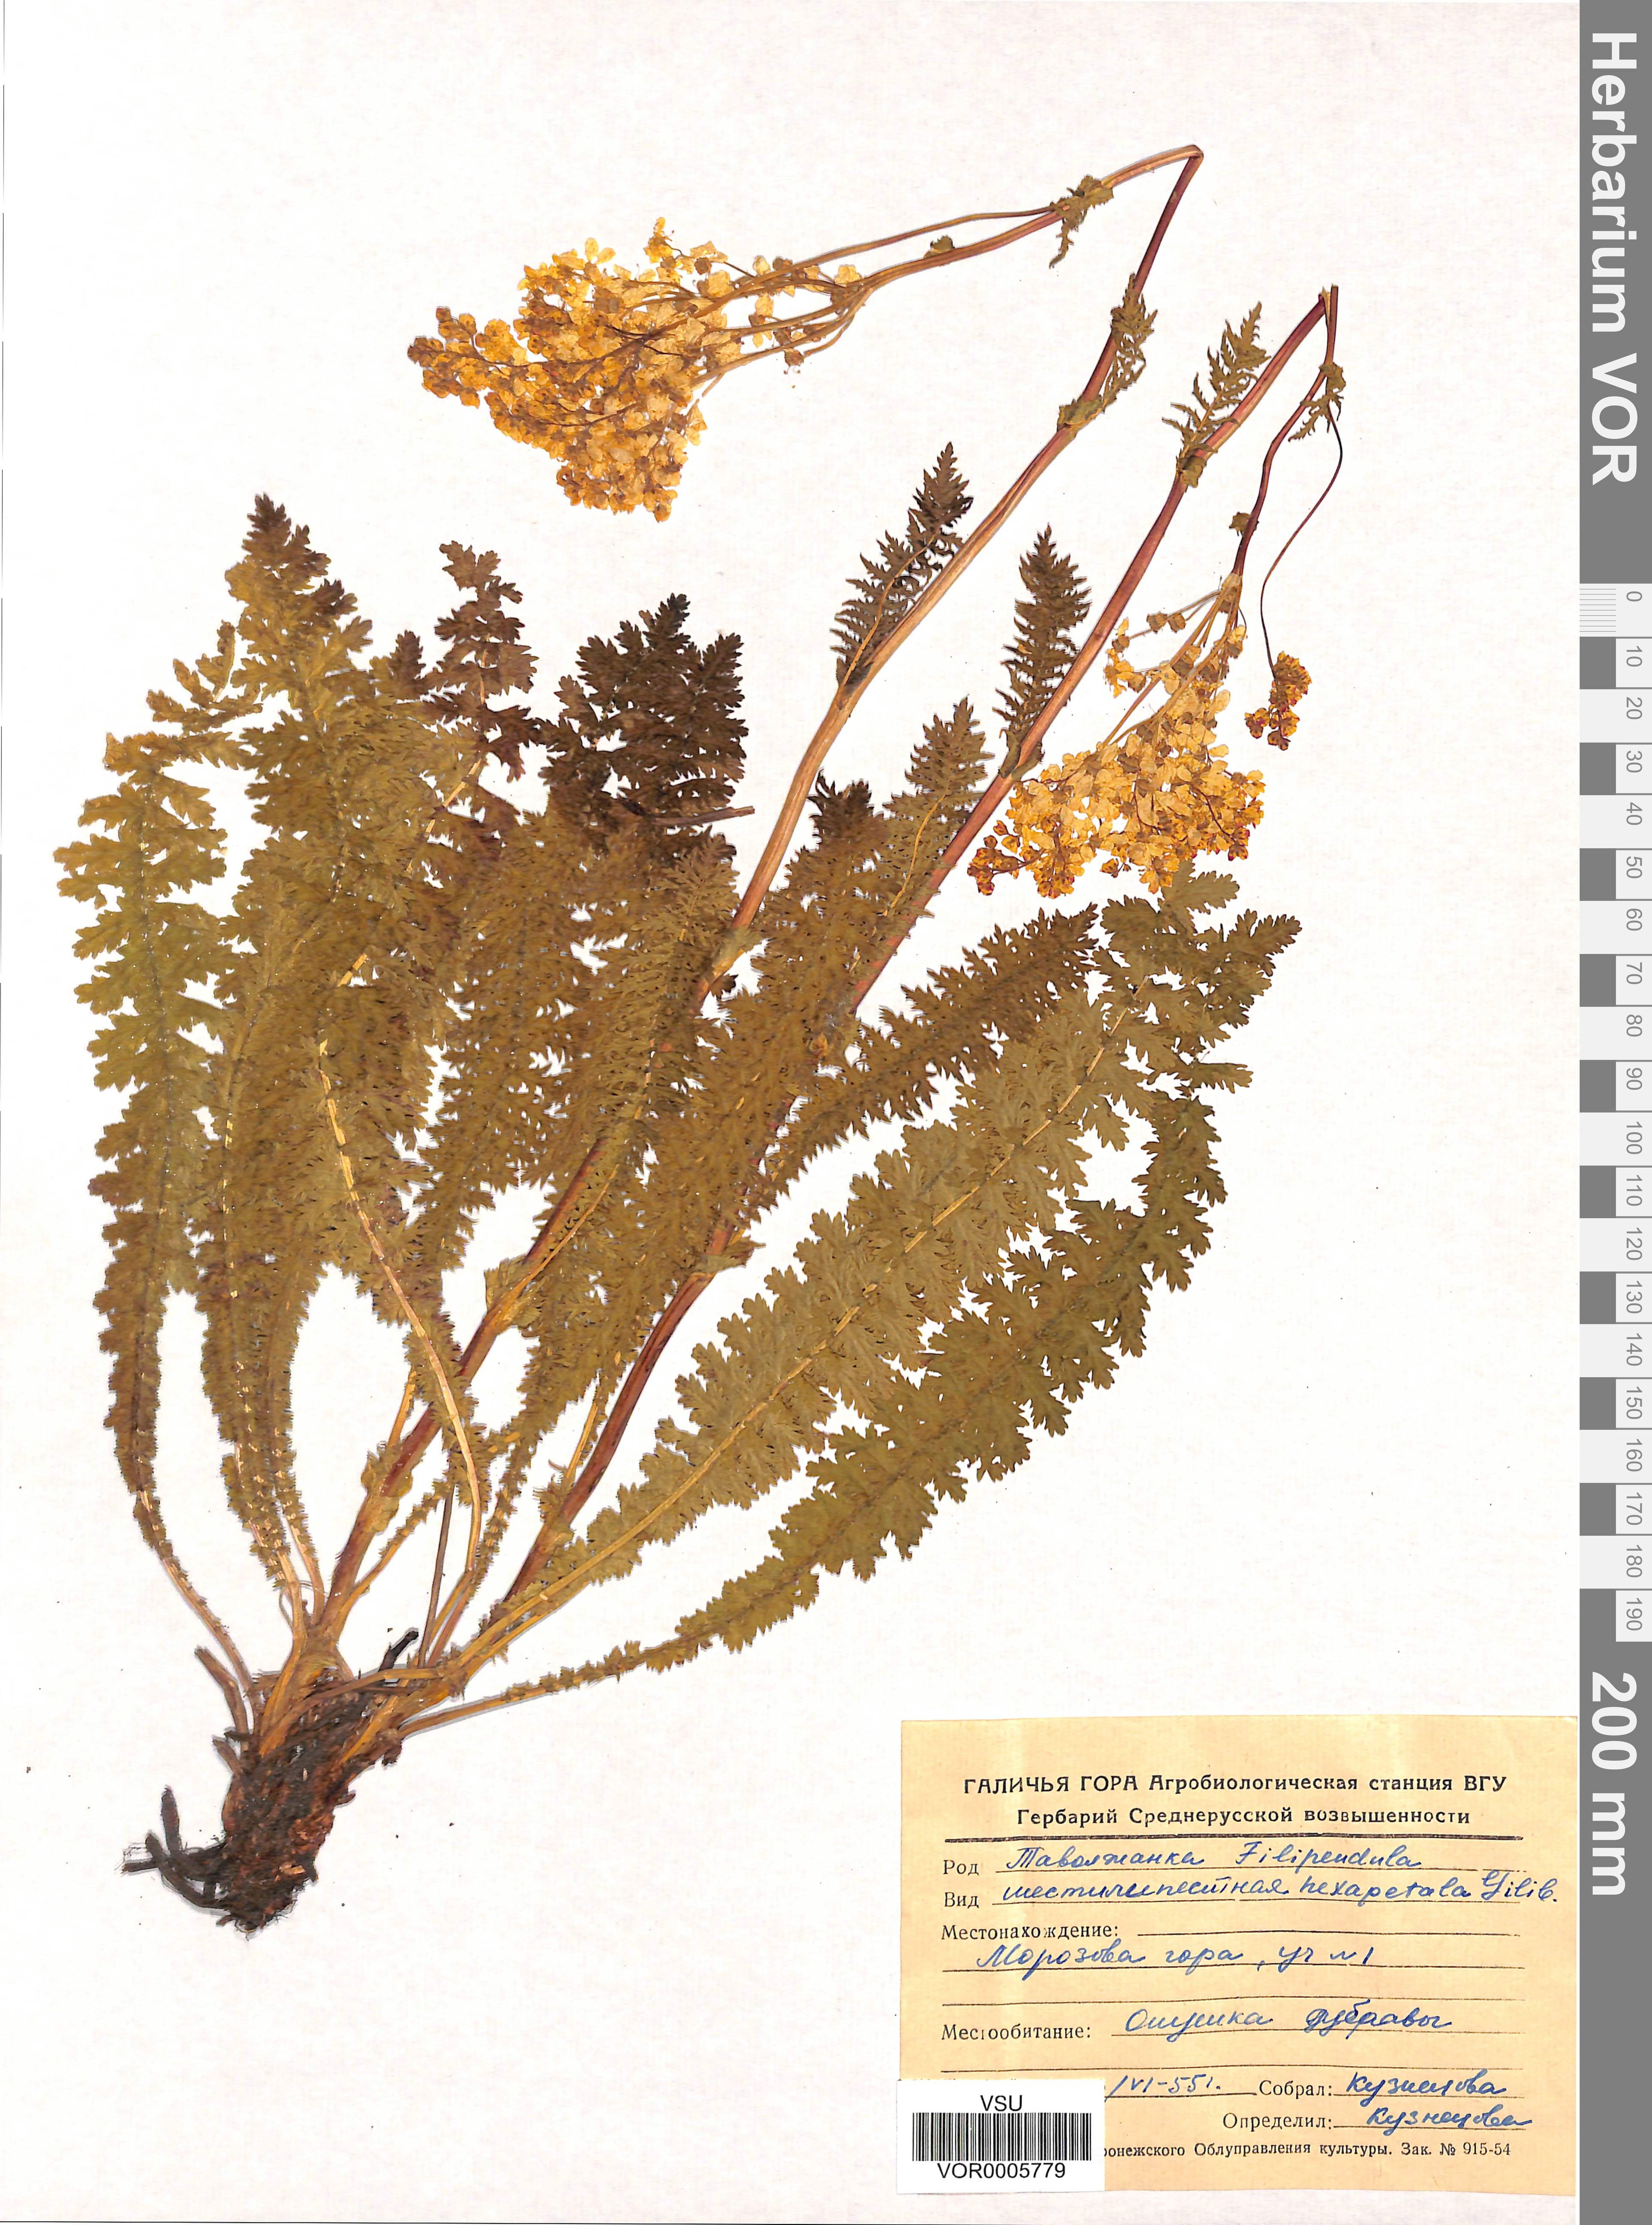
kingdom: Plantae
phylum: Tracheophyta
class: Magnoliopsida
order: Rosales
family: Rosaceae
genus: Filipendula
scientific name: Filipendula vulgaris
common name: Dropwort
